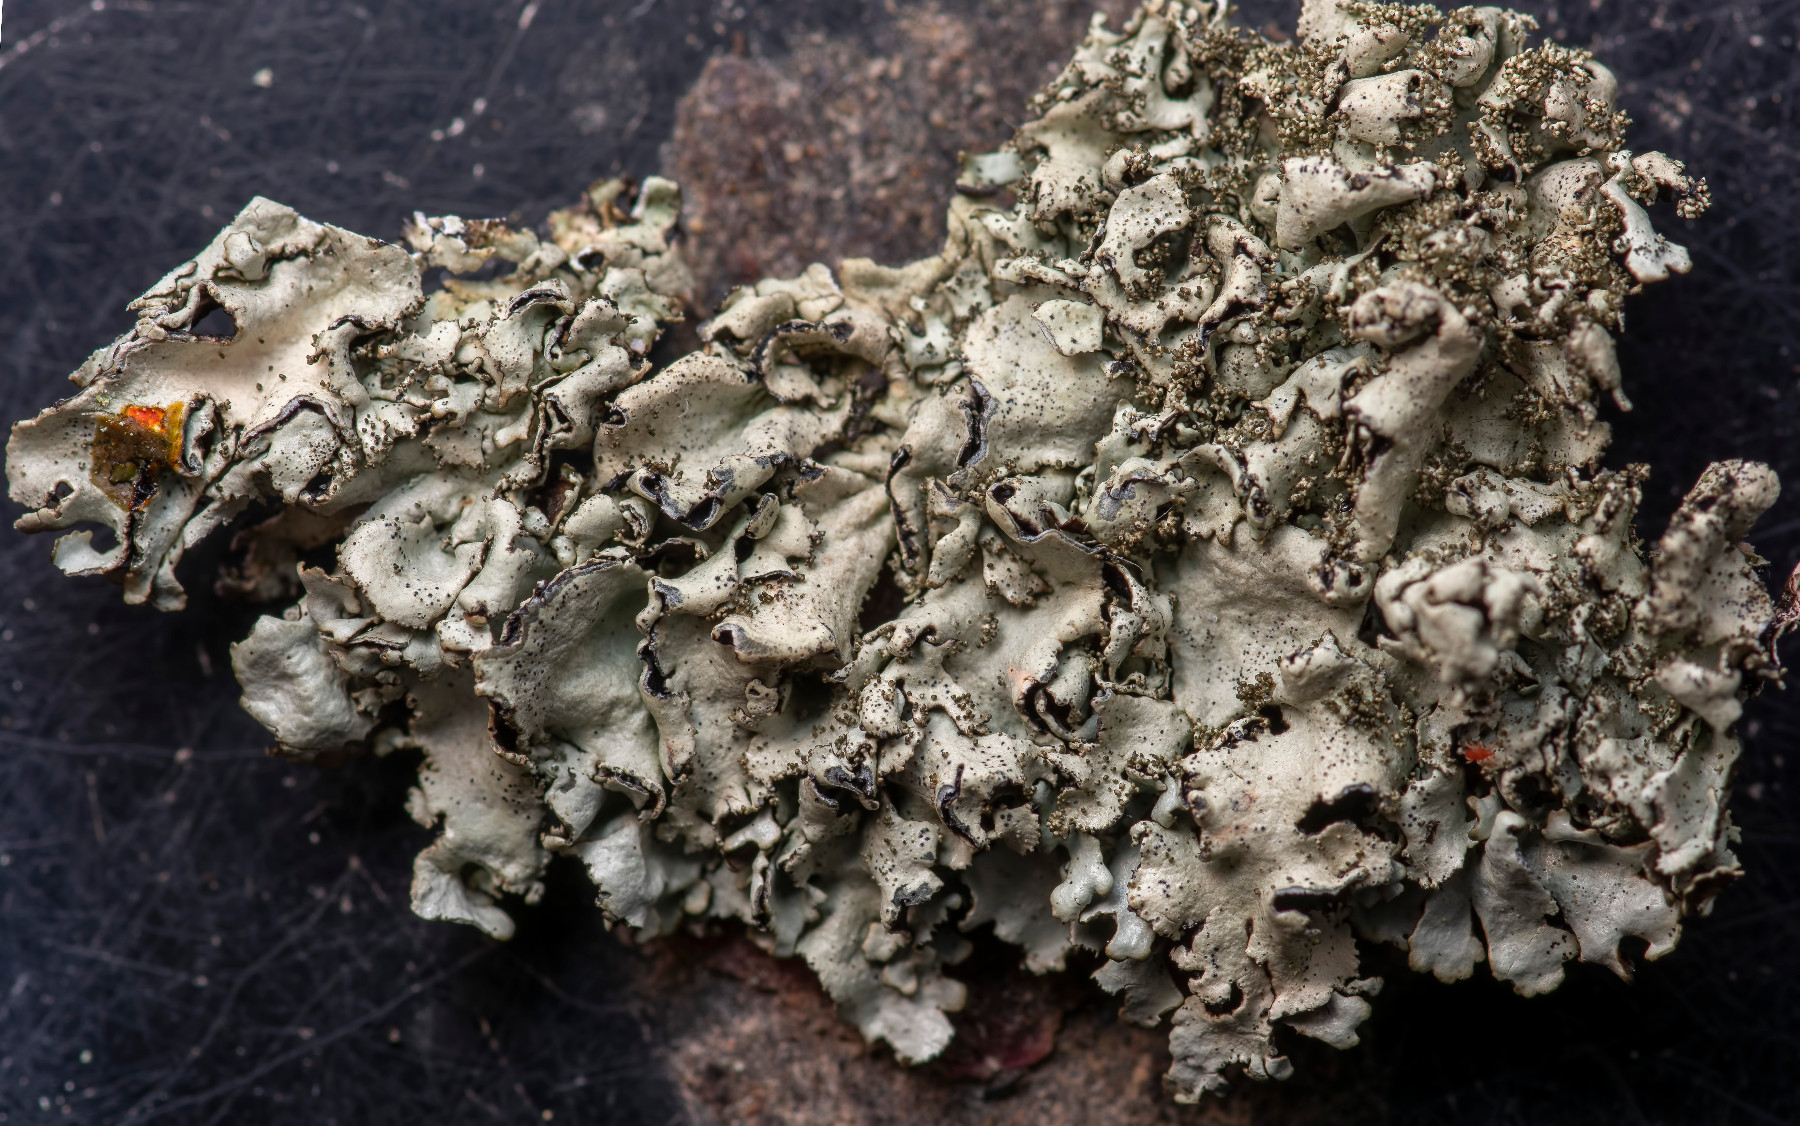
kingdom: Fungi
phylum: Ascomycota
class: Lecanoromycetes
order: Lecanorales
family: Parmeliaceae
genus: Xanthoparmelia
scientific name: Xanthoparmelia tinctina
